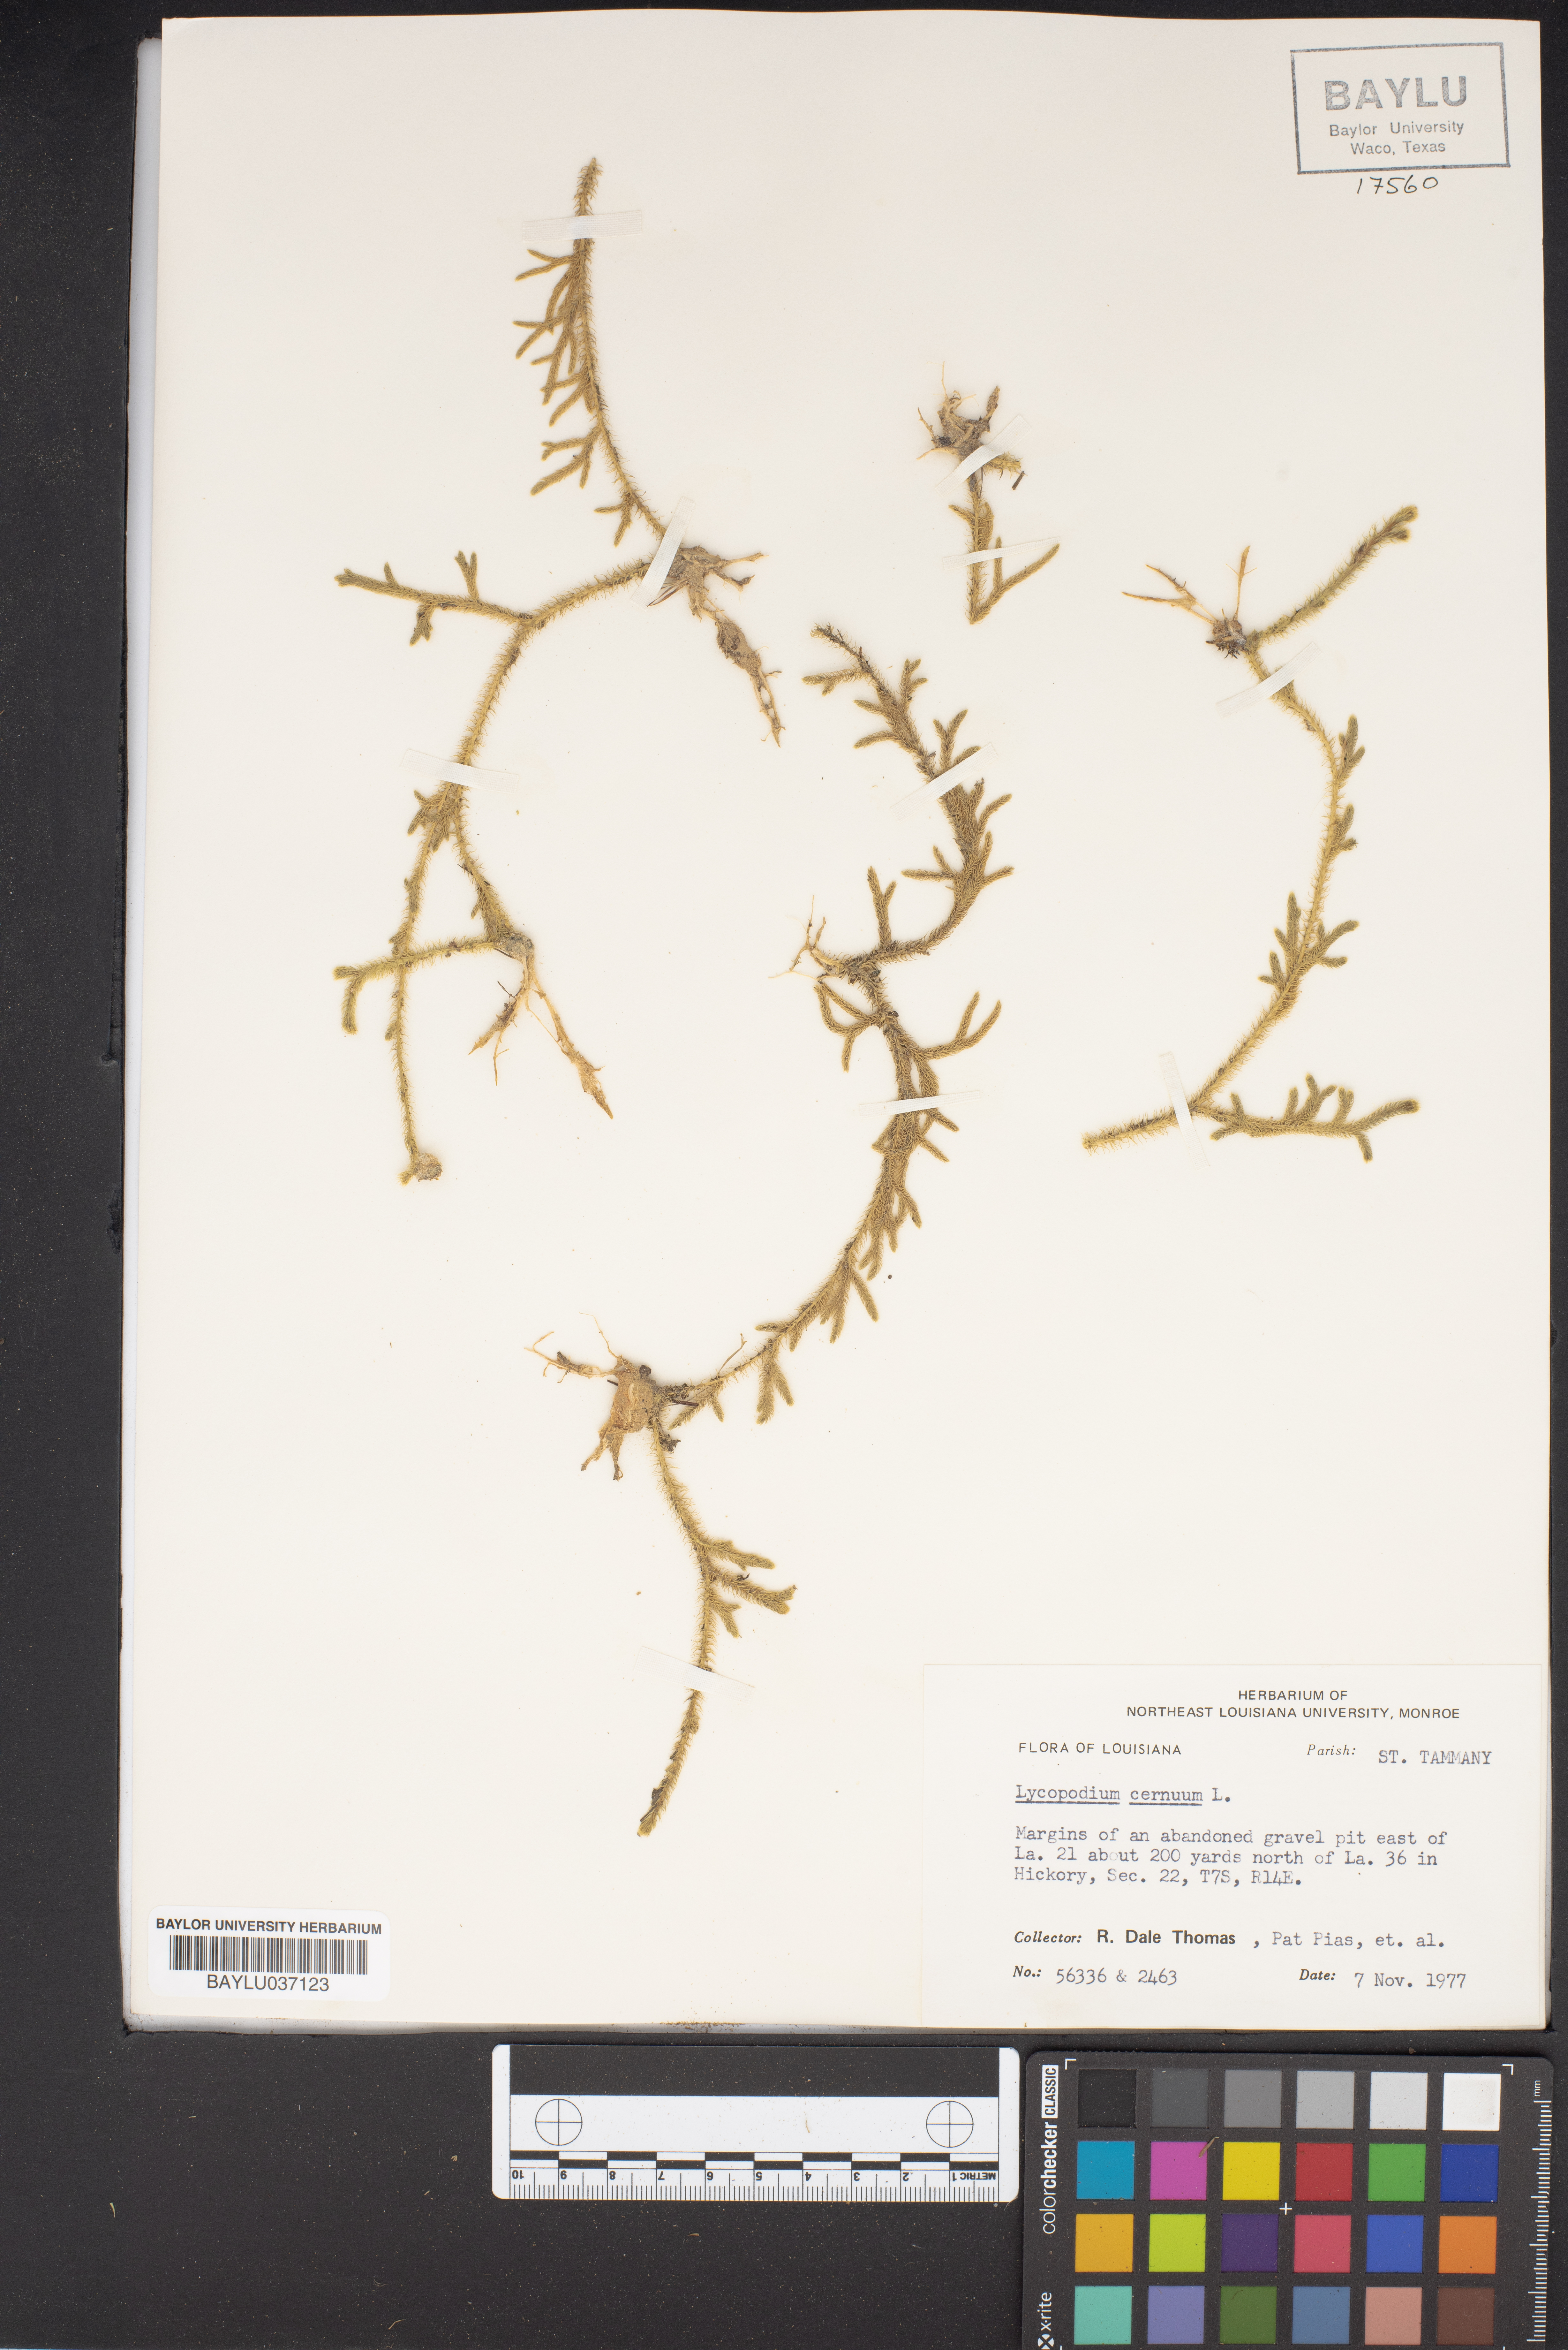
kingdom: Plantae
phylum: Tracheophyta
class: Lycopodiopsida
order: Lycopodiales
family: Lycopodiaceae
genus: Palhinhaea
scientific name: Palhinhaea cernua
